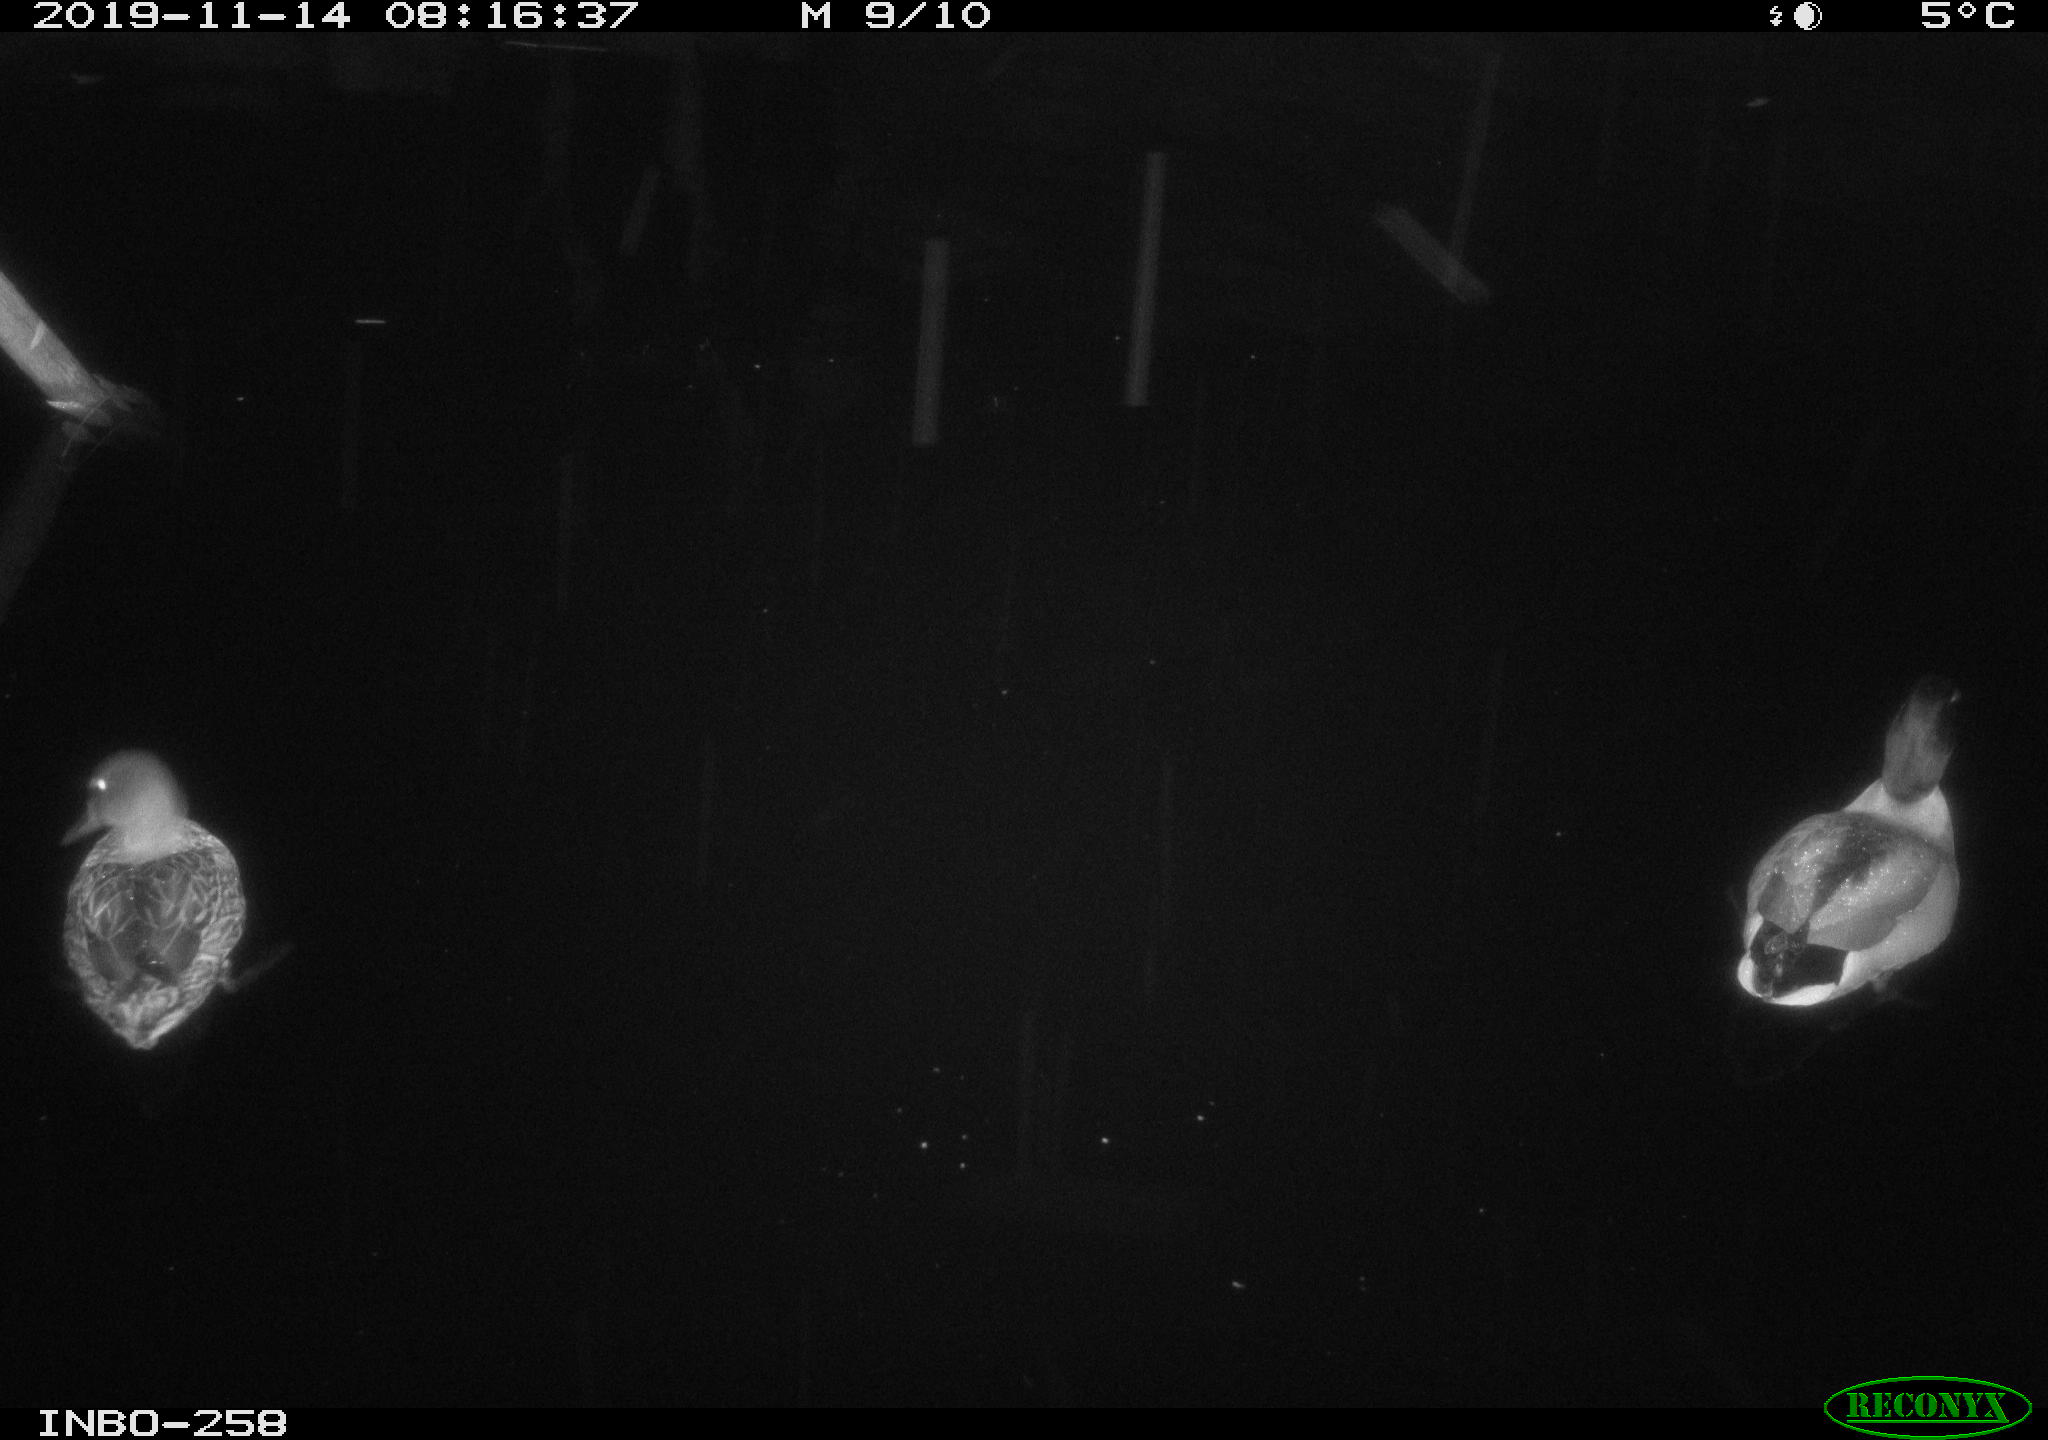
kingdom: Animalia
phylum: Chordata
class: Aves
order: Anseriformes
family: Anatidae
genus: Anas
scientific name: Anas platyrhynchos
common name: Mallard
